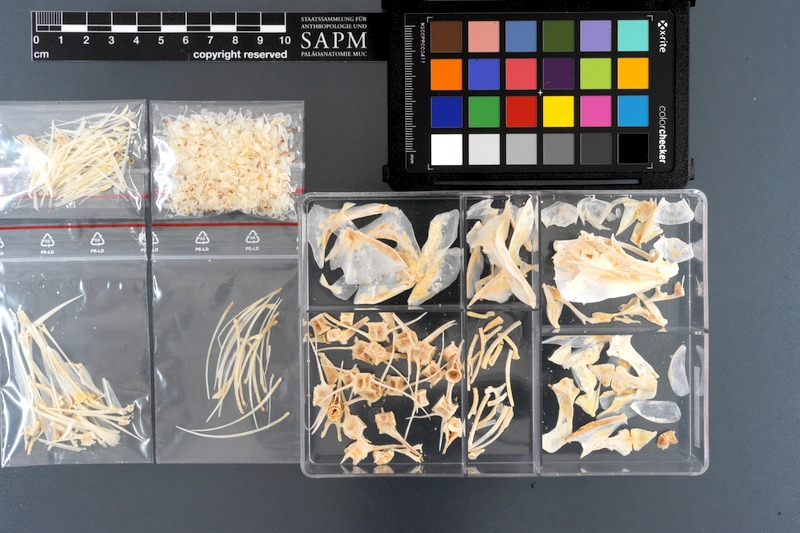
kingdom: Animalia
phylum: Chordata
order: Perciformes
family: Lutjanidae
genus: Pinjalo
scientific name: Pinjalo pinjalo
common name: Pinjalo snapper
